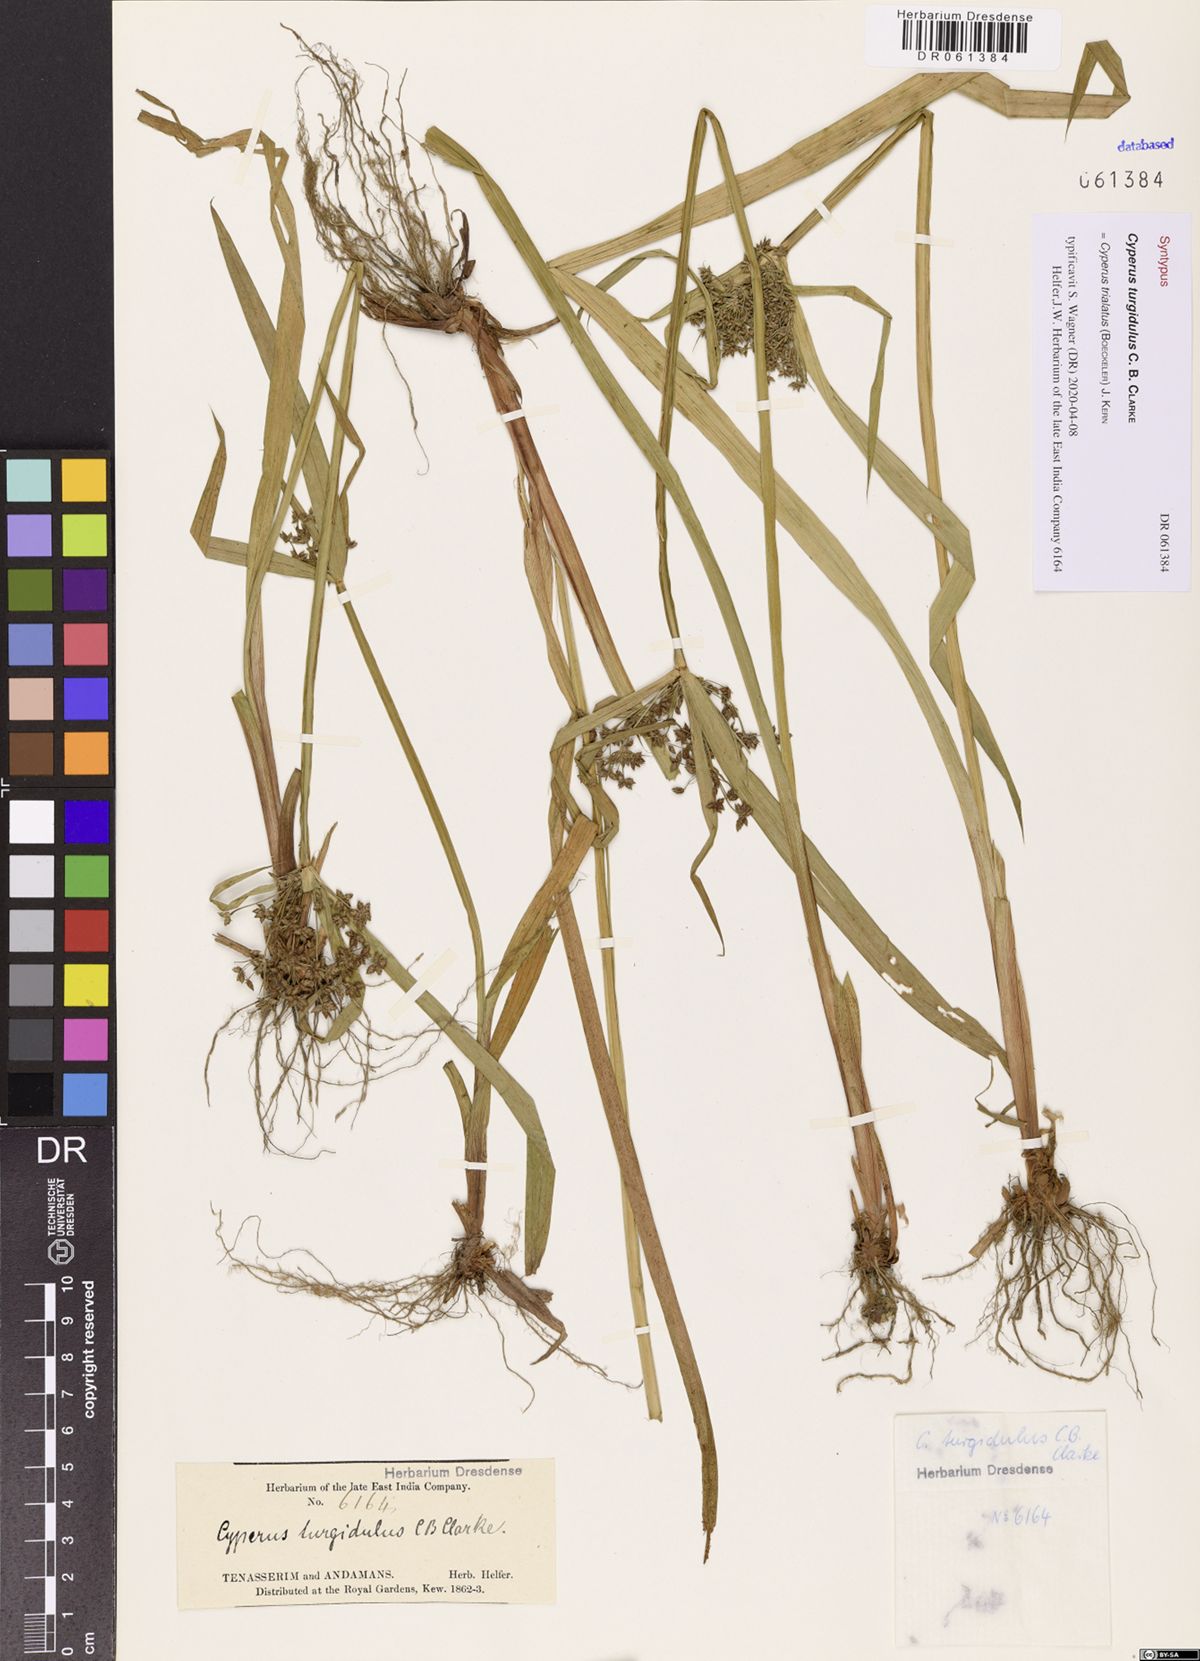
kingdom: Plantae
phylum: Tracheophyta
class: Liliopsida
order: Poales
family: Cyperaceae
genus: Cyperus
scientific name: Cyperus trialatus
